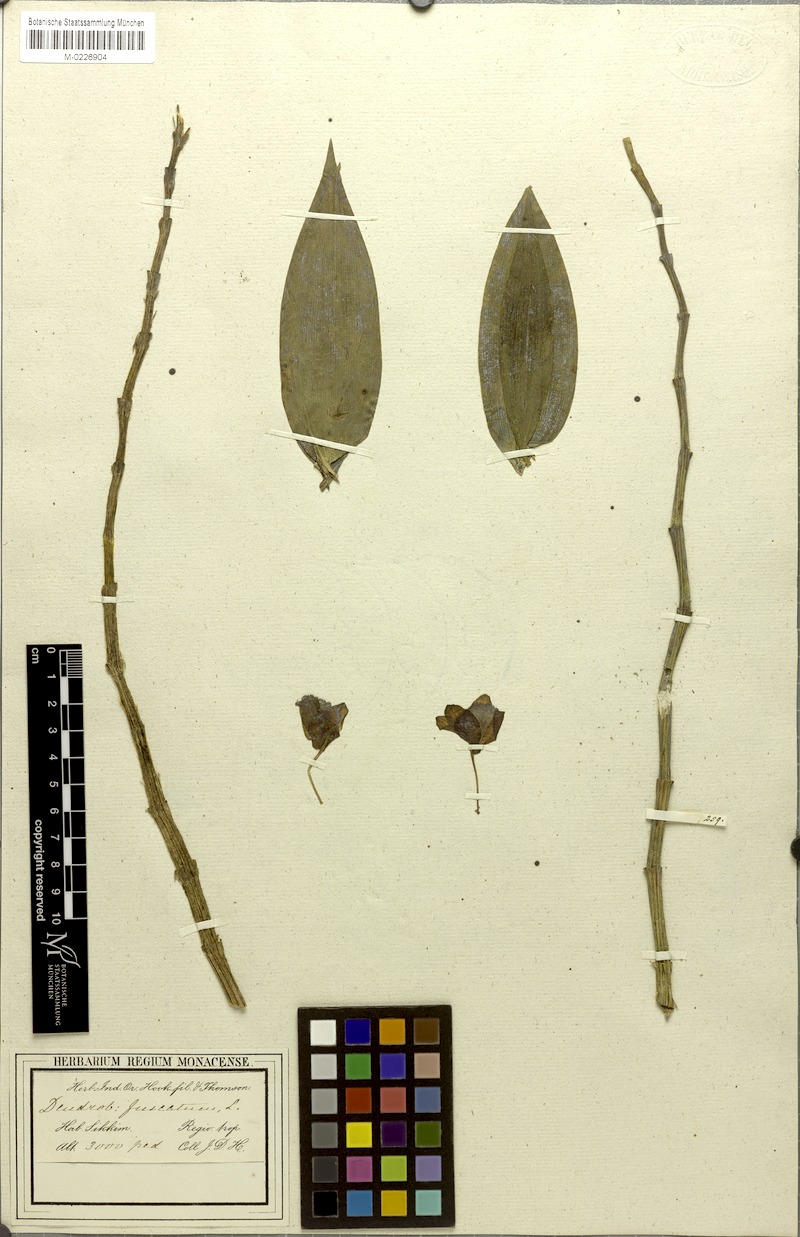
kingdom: Plantae
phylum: Tracheophyta
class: Liliopsida
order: Asparagales
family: Orchidaceae
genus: Dendrobium
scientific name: Dendrobium gibsonii
